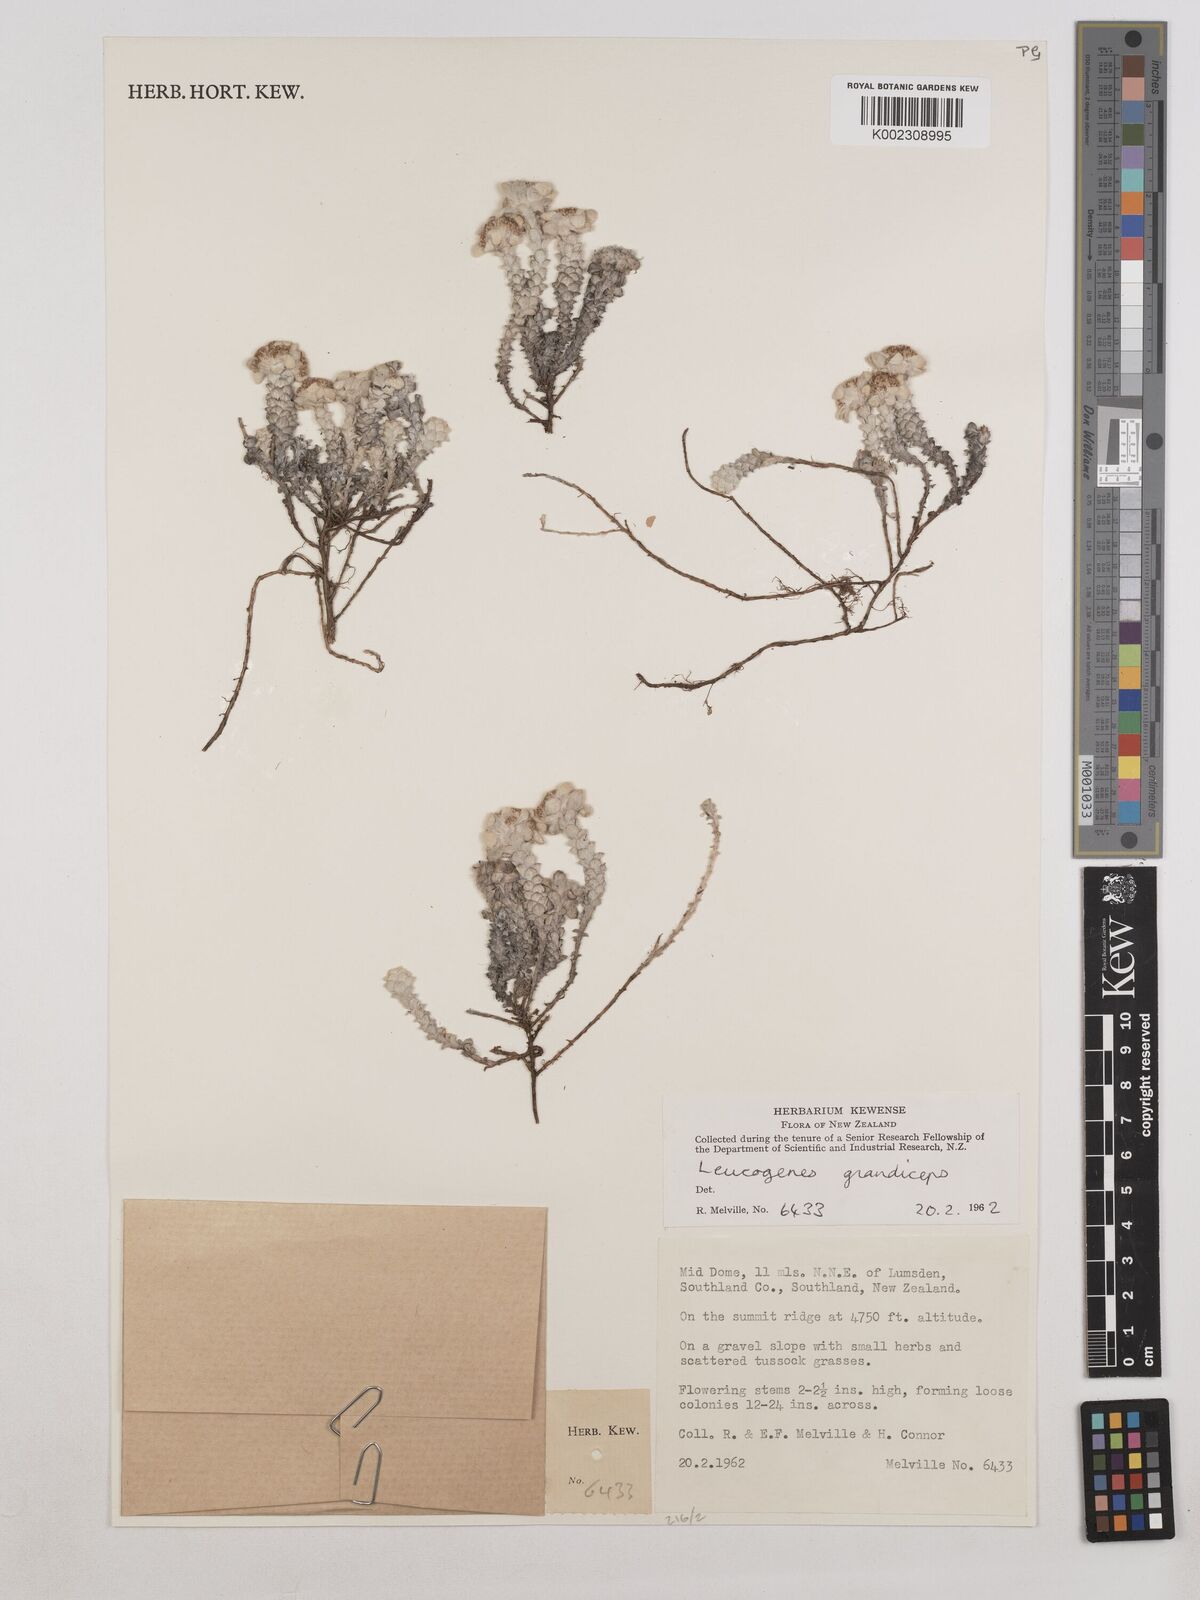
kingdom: Plantae
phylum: Tracheophyta
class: Magnoliopsida
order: Asterales
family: Asteraceae
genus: Leucogenes
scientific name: Leucogenes grandiceps
